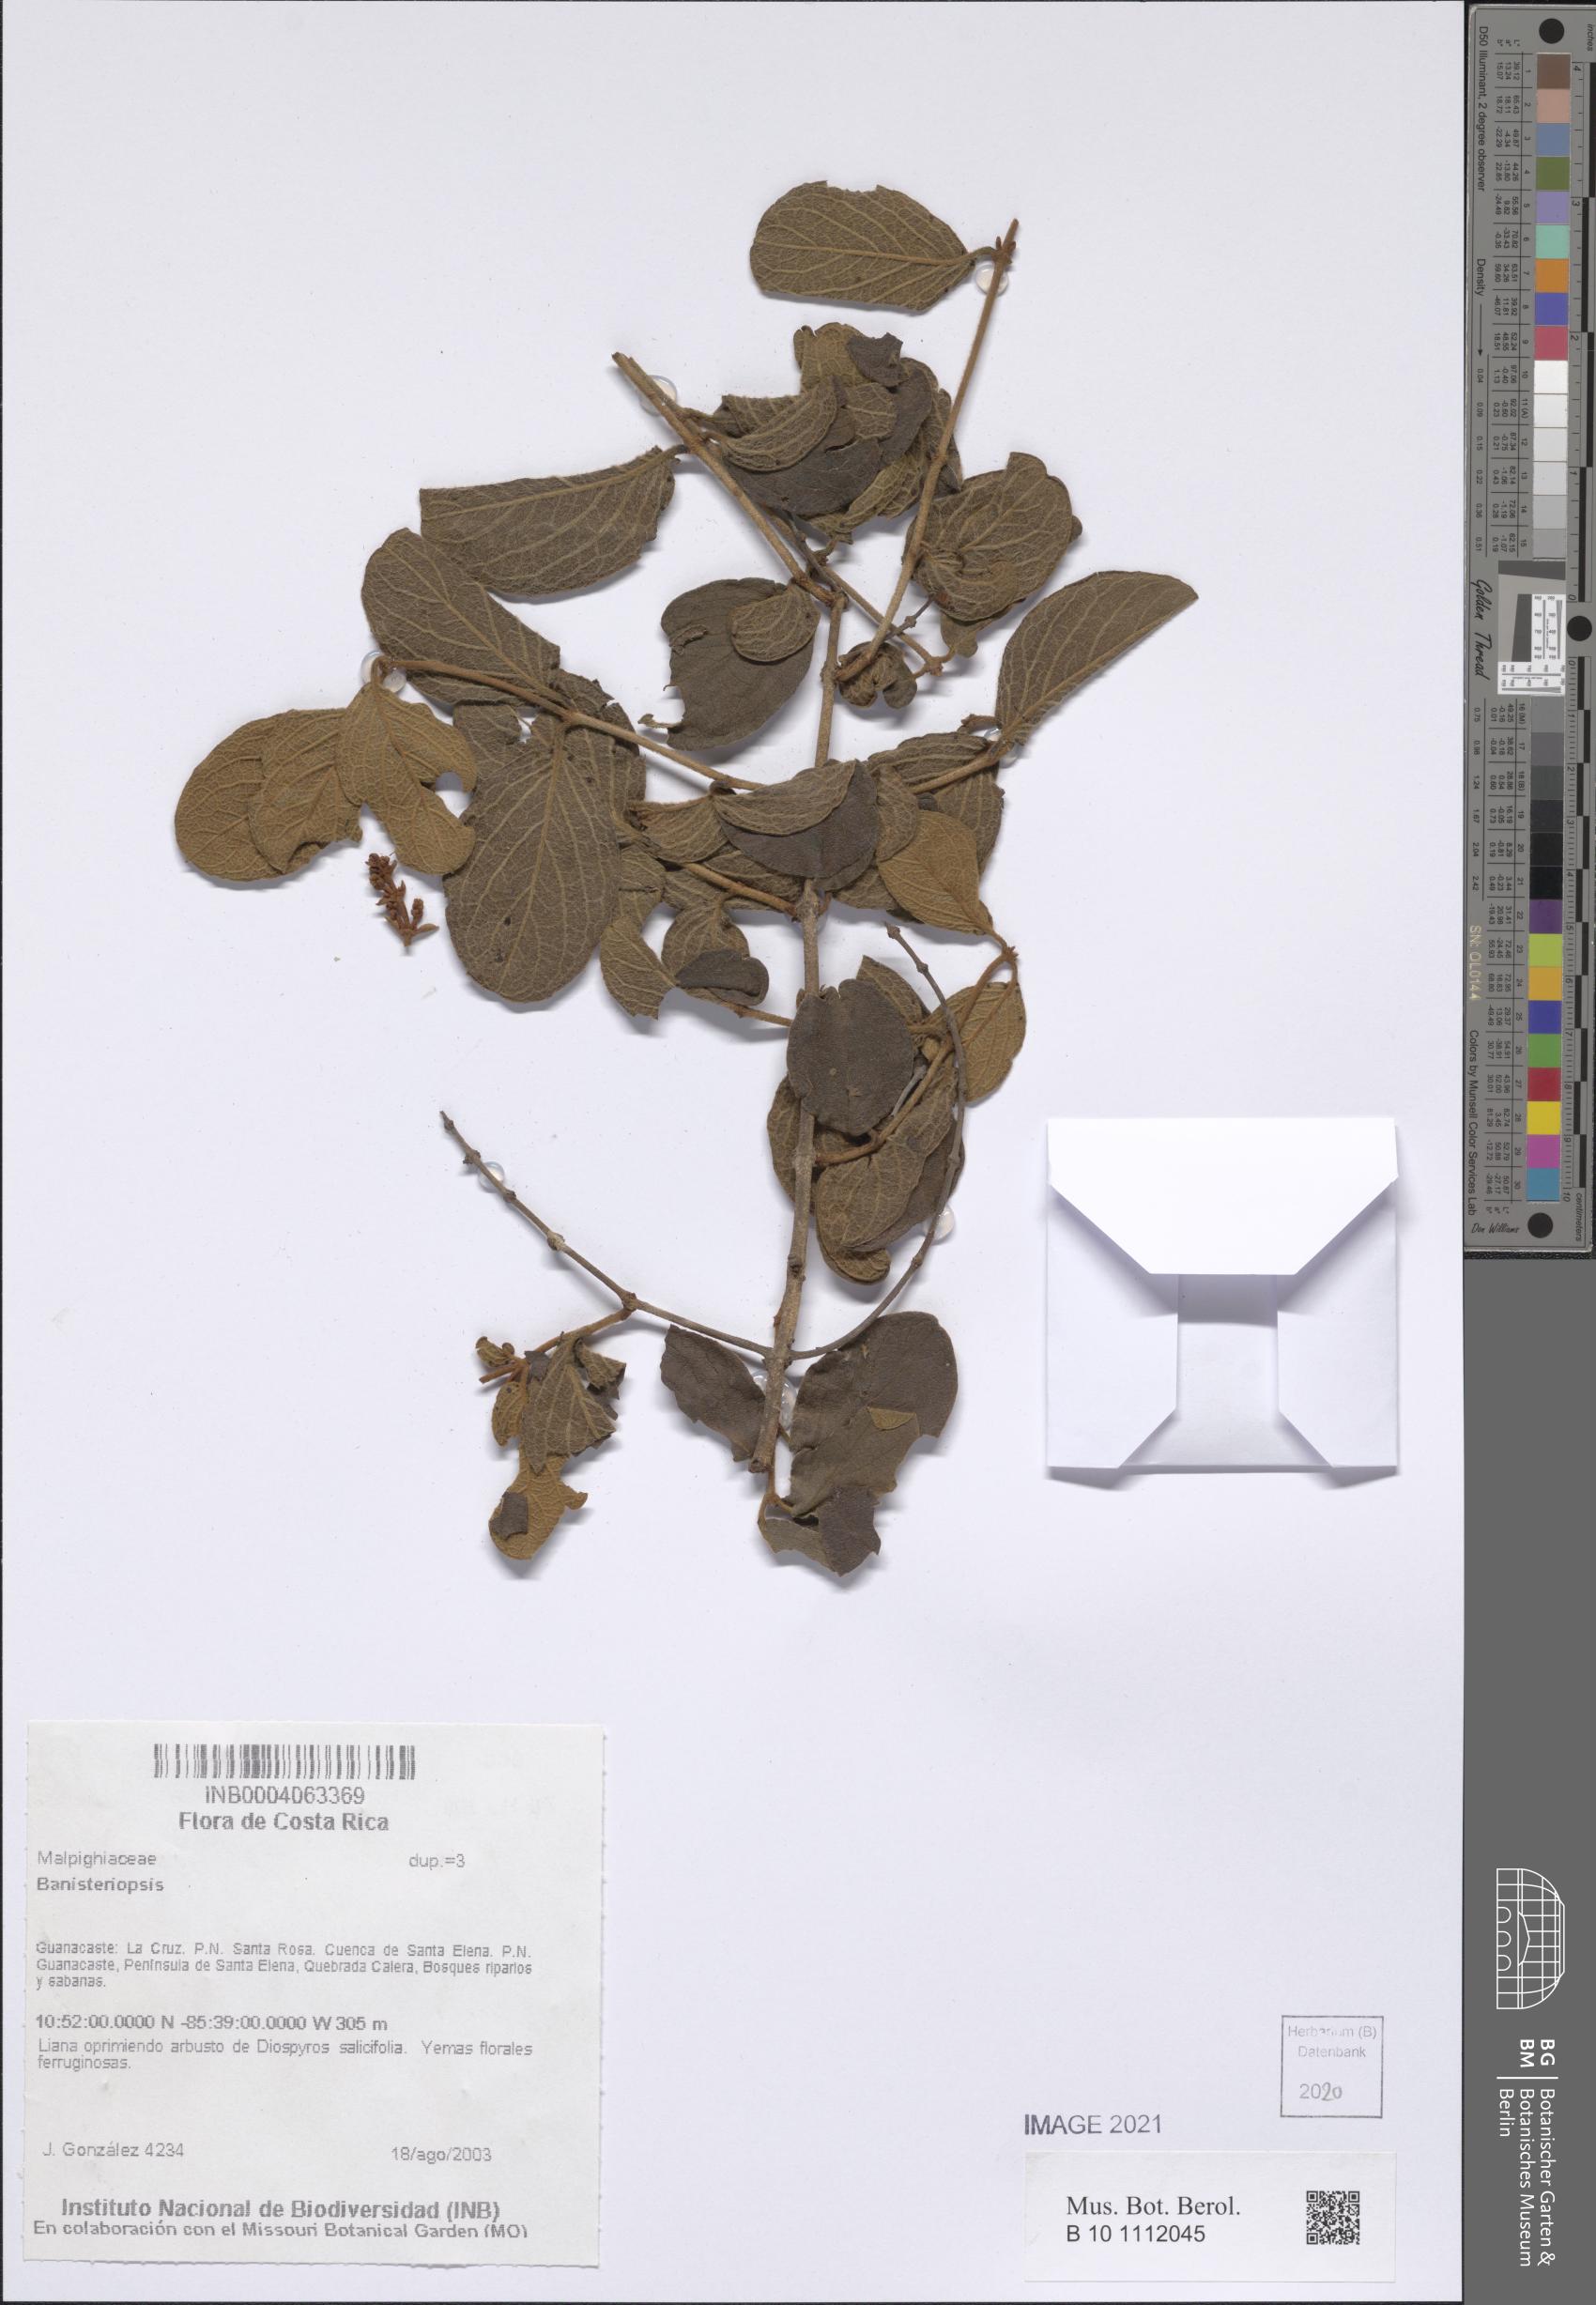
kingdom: Plantae
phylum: Tracheophyta
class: Magnoliopsida
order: Malpighiales
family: Malpighiaceae
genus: Banisteriopsis
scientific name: Banisteriopsis
